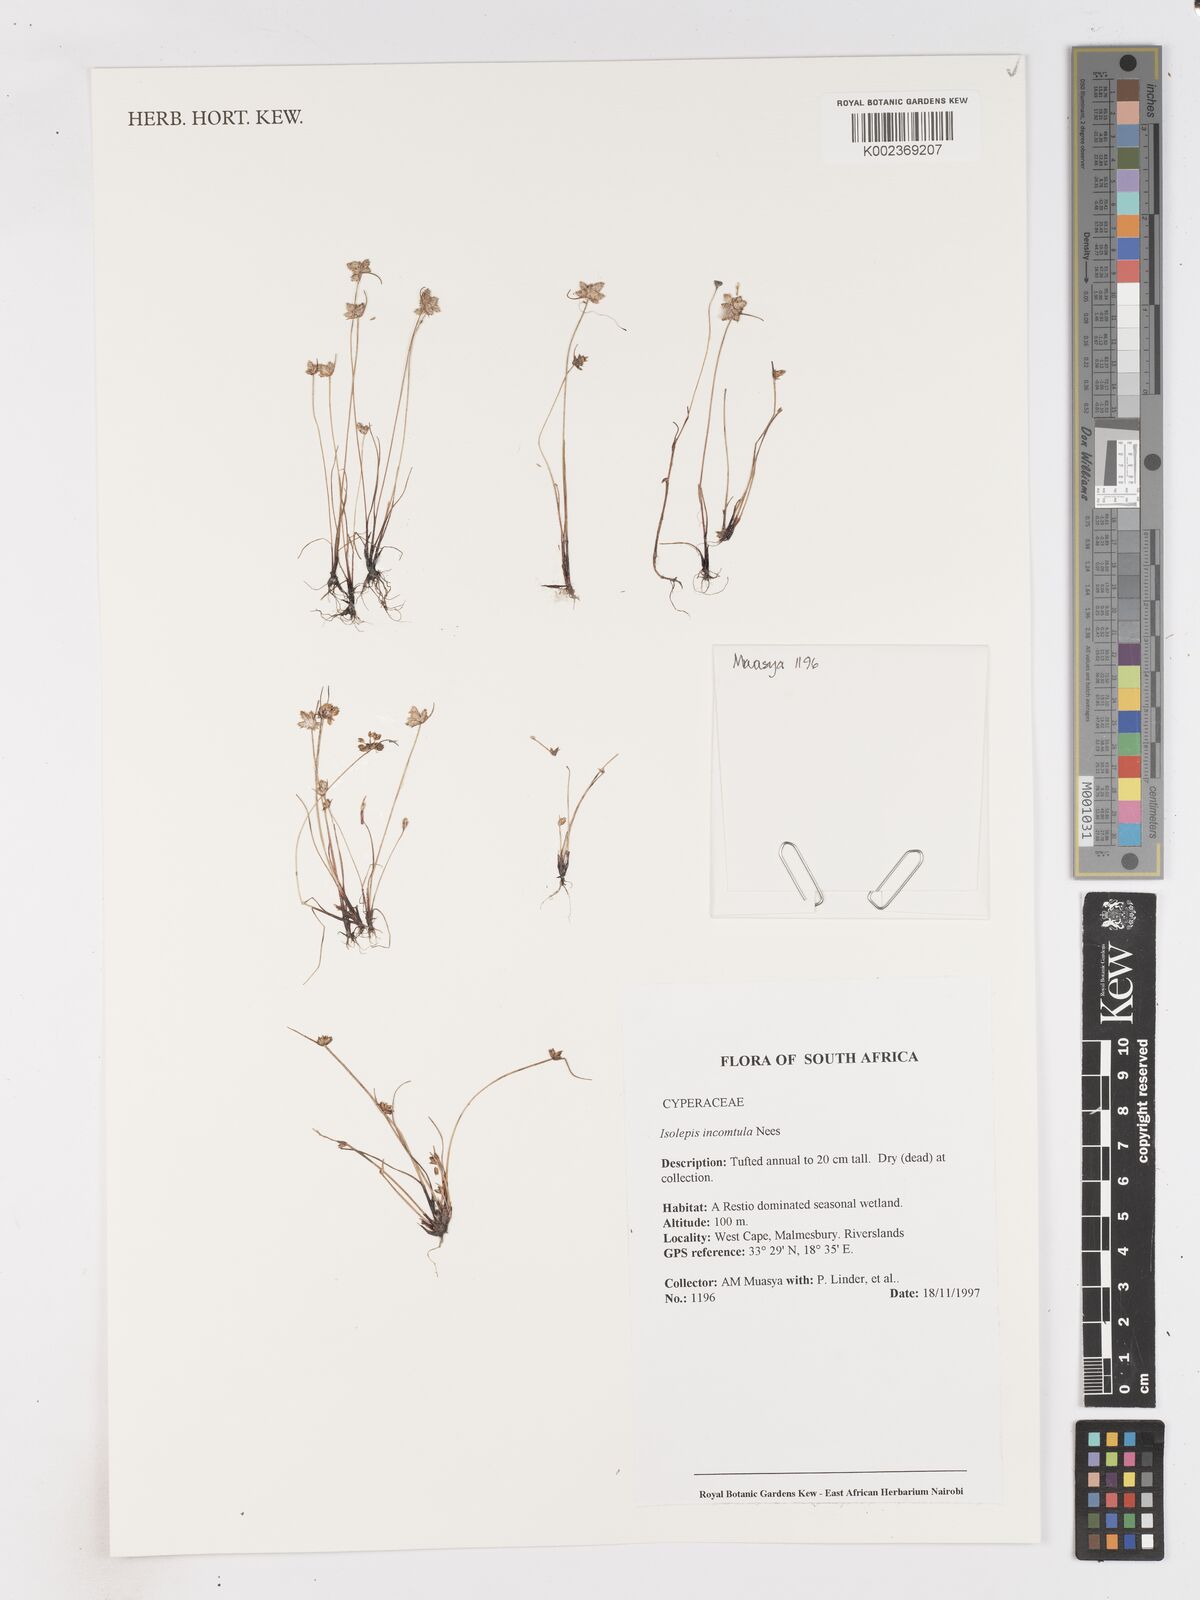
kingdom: Plantae
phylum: Tracheophyta
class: Liliopsida
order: Poales
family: Cyperaceae
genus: Ficinia
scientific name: Ficinia incomtula
